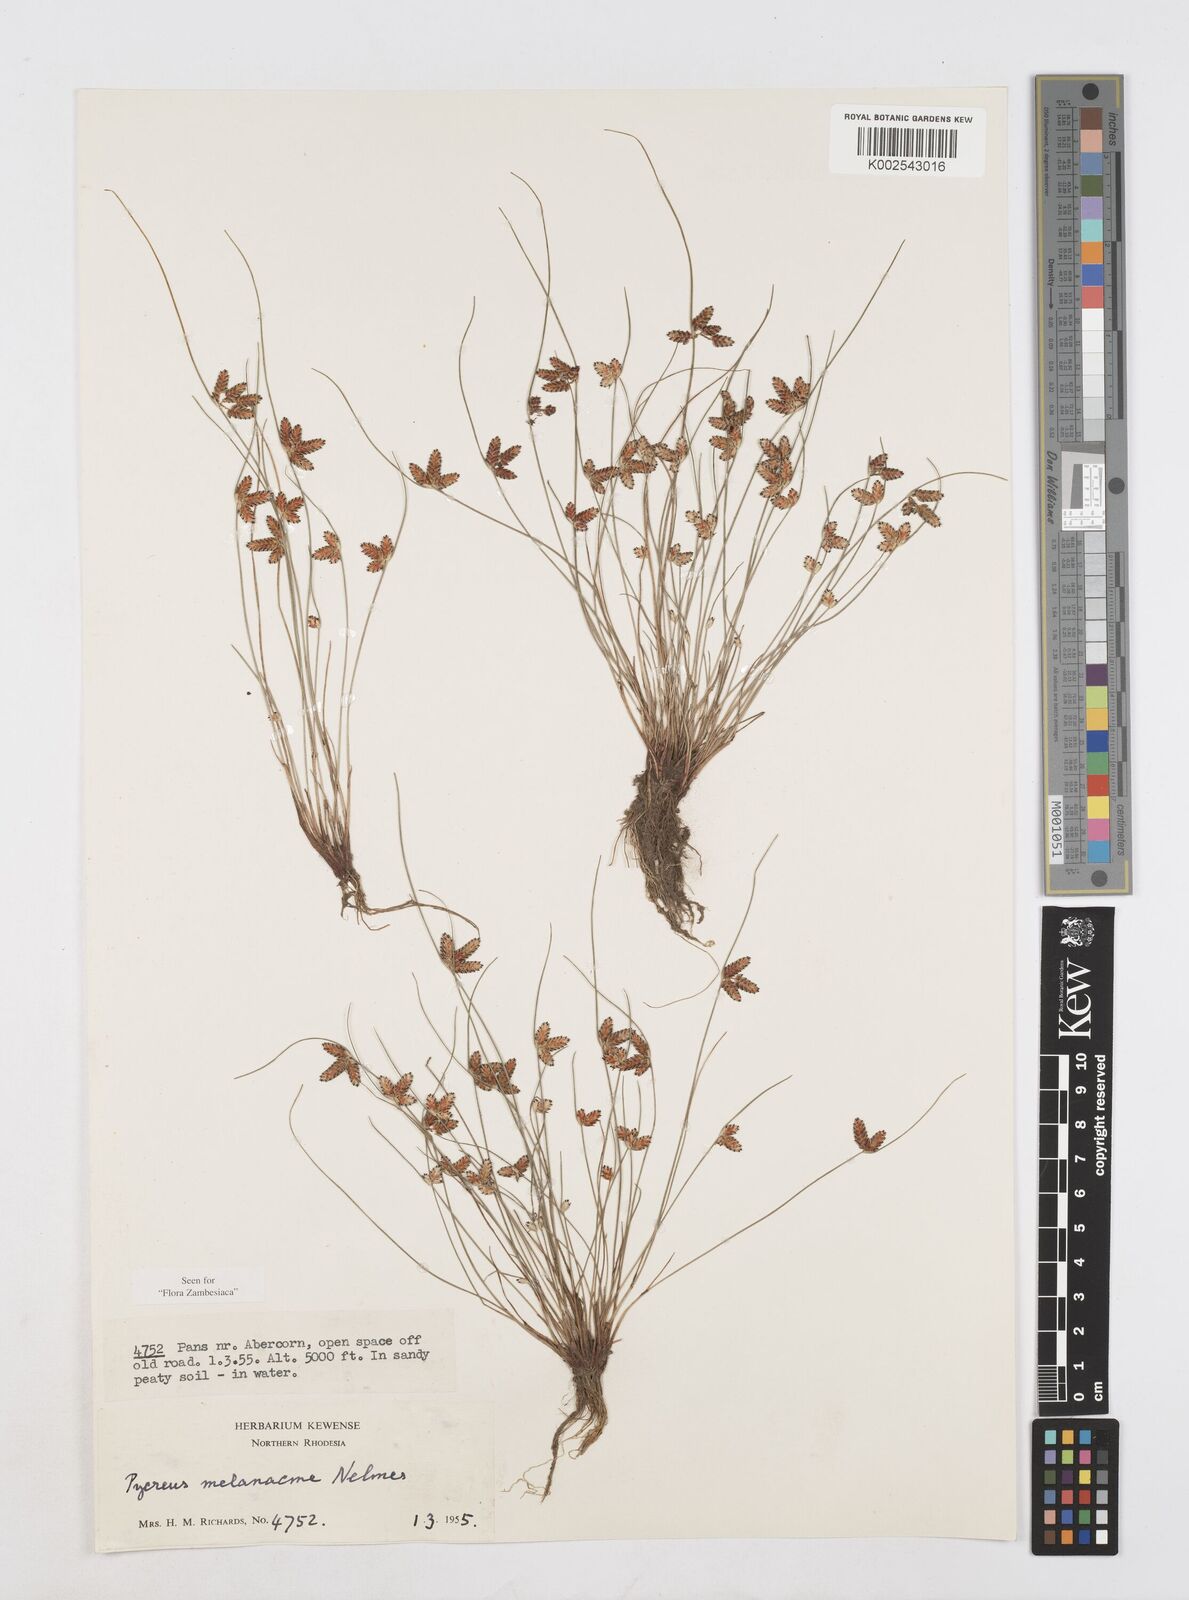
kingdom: Plantae
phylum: Tracheophyta
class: Liliopsida
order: Poales
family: Cyperaceae
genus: Cyperus
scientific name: Cyperus melanacme
